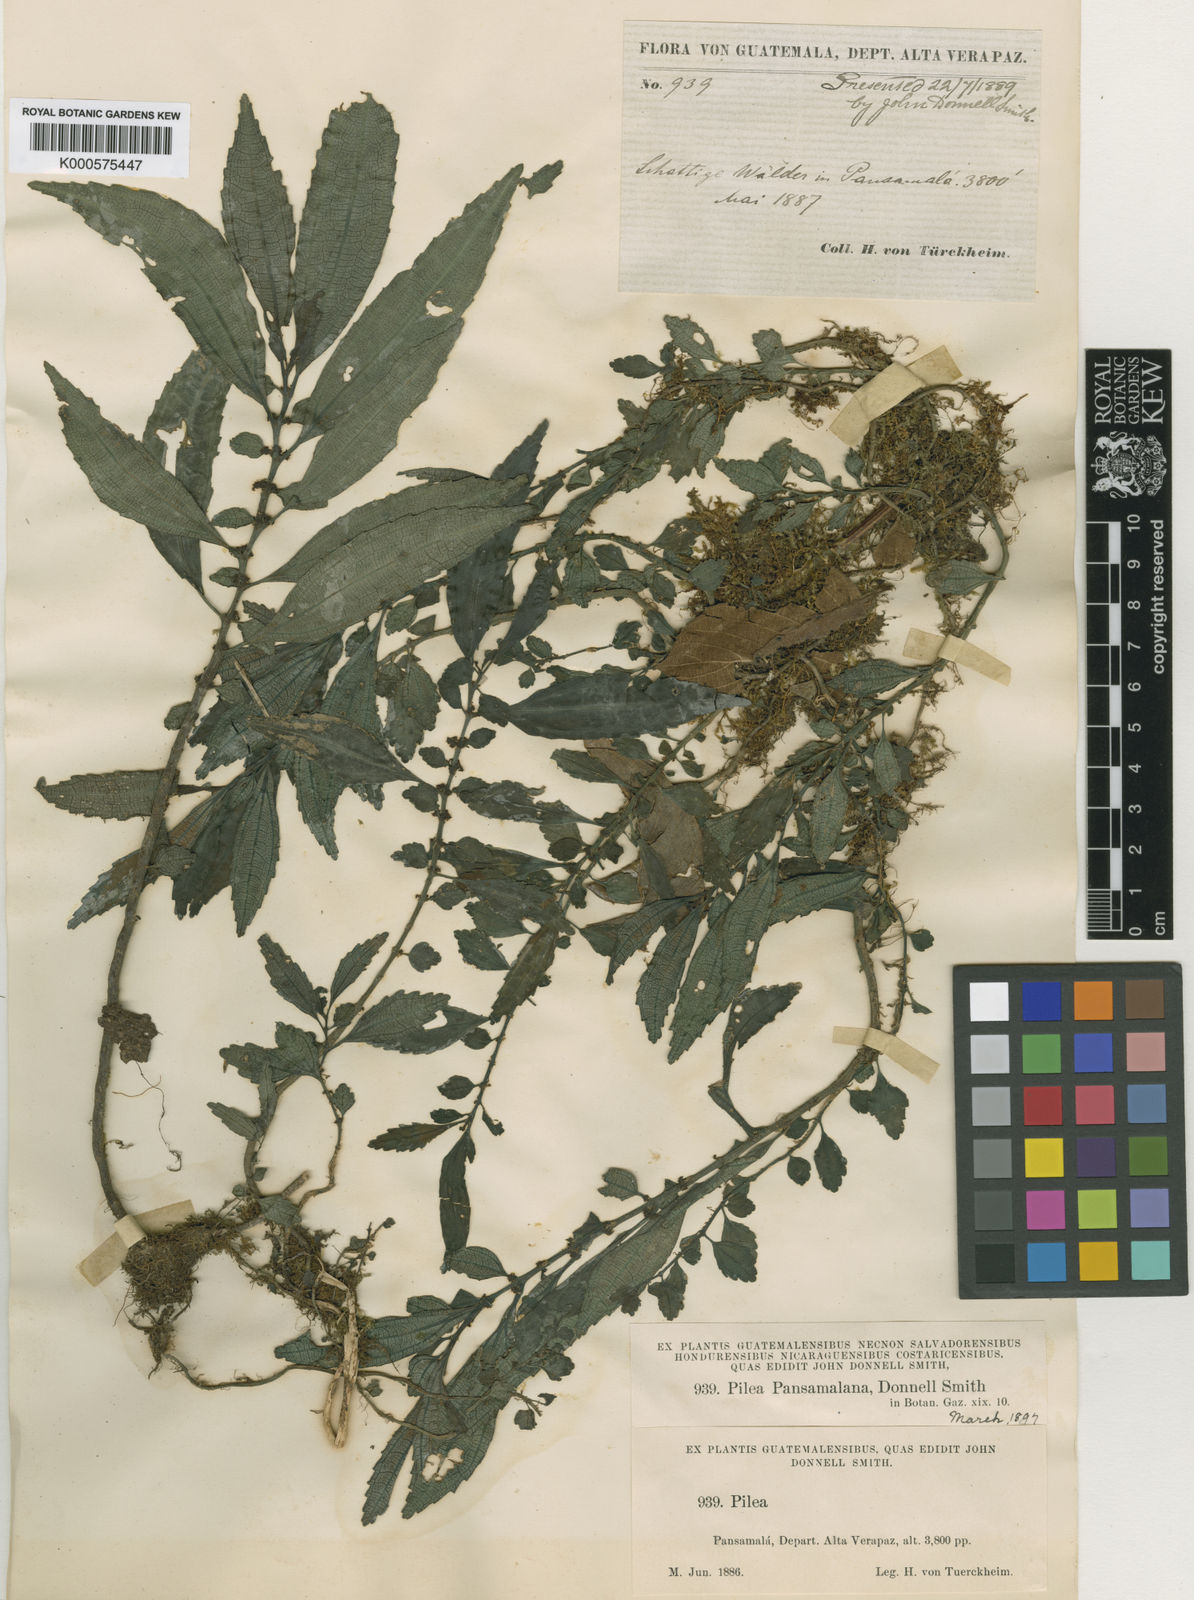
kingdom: Plantae
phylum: Tracheophyta
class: Magnoliopsida
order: Rosales
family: Urticaceae
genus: Pilea
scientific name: Pilea pansamalana
